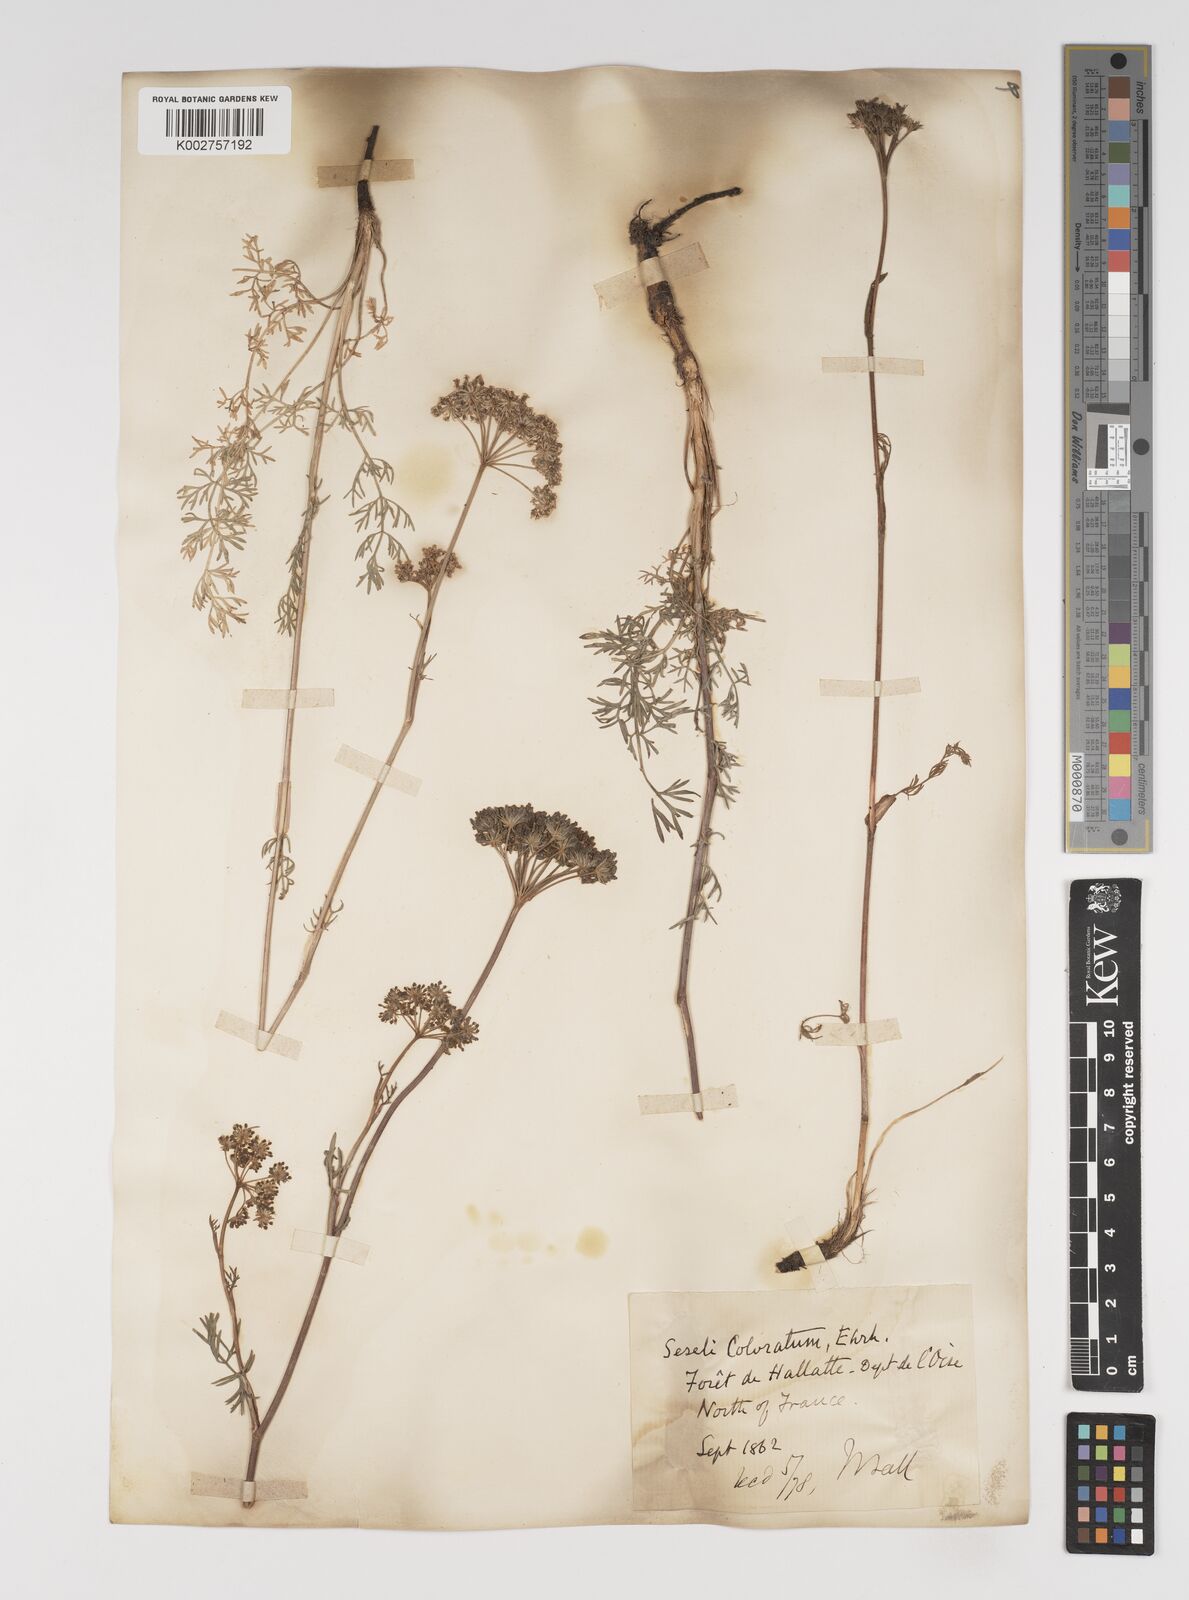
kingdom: Plantae
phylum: Tracheophyta
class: Magnoliopsida
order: Apiales
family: Apiaceae
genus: Seseli
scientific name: Seseli annuum
